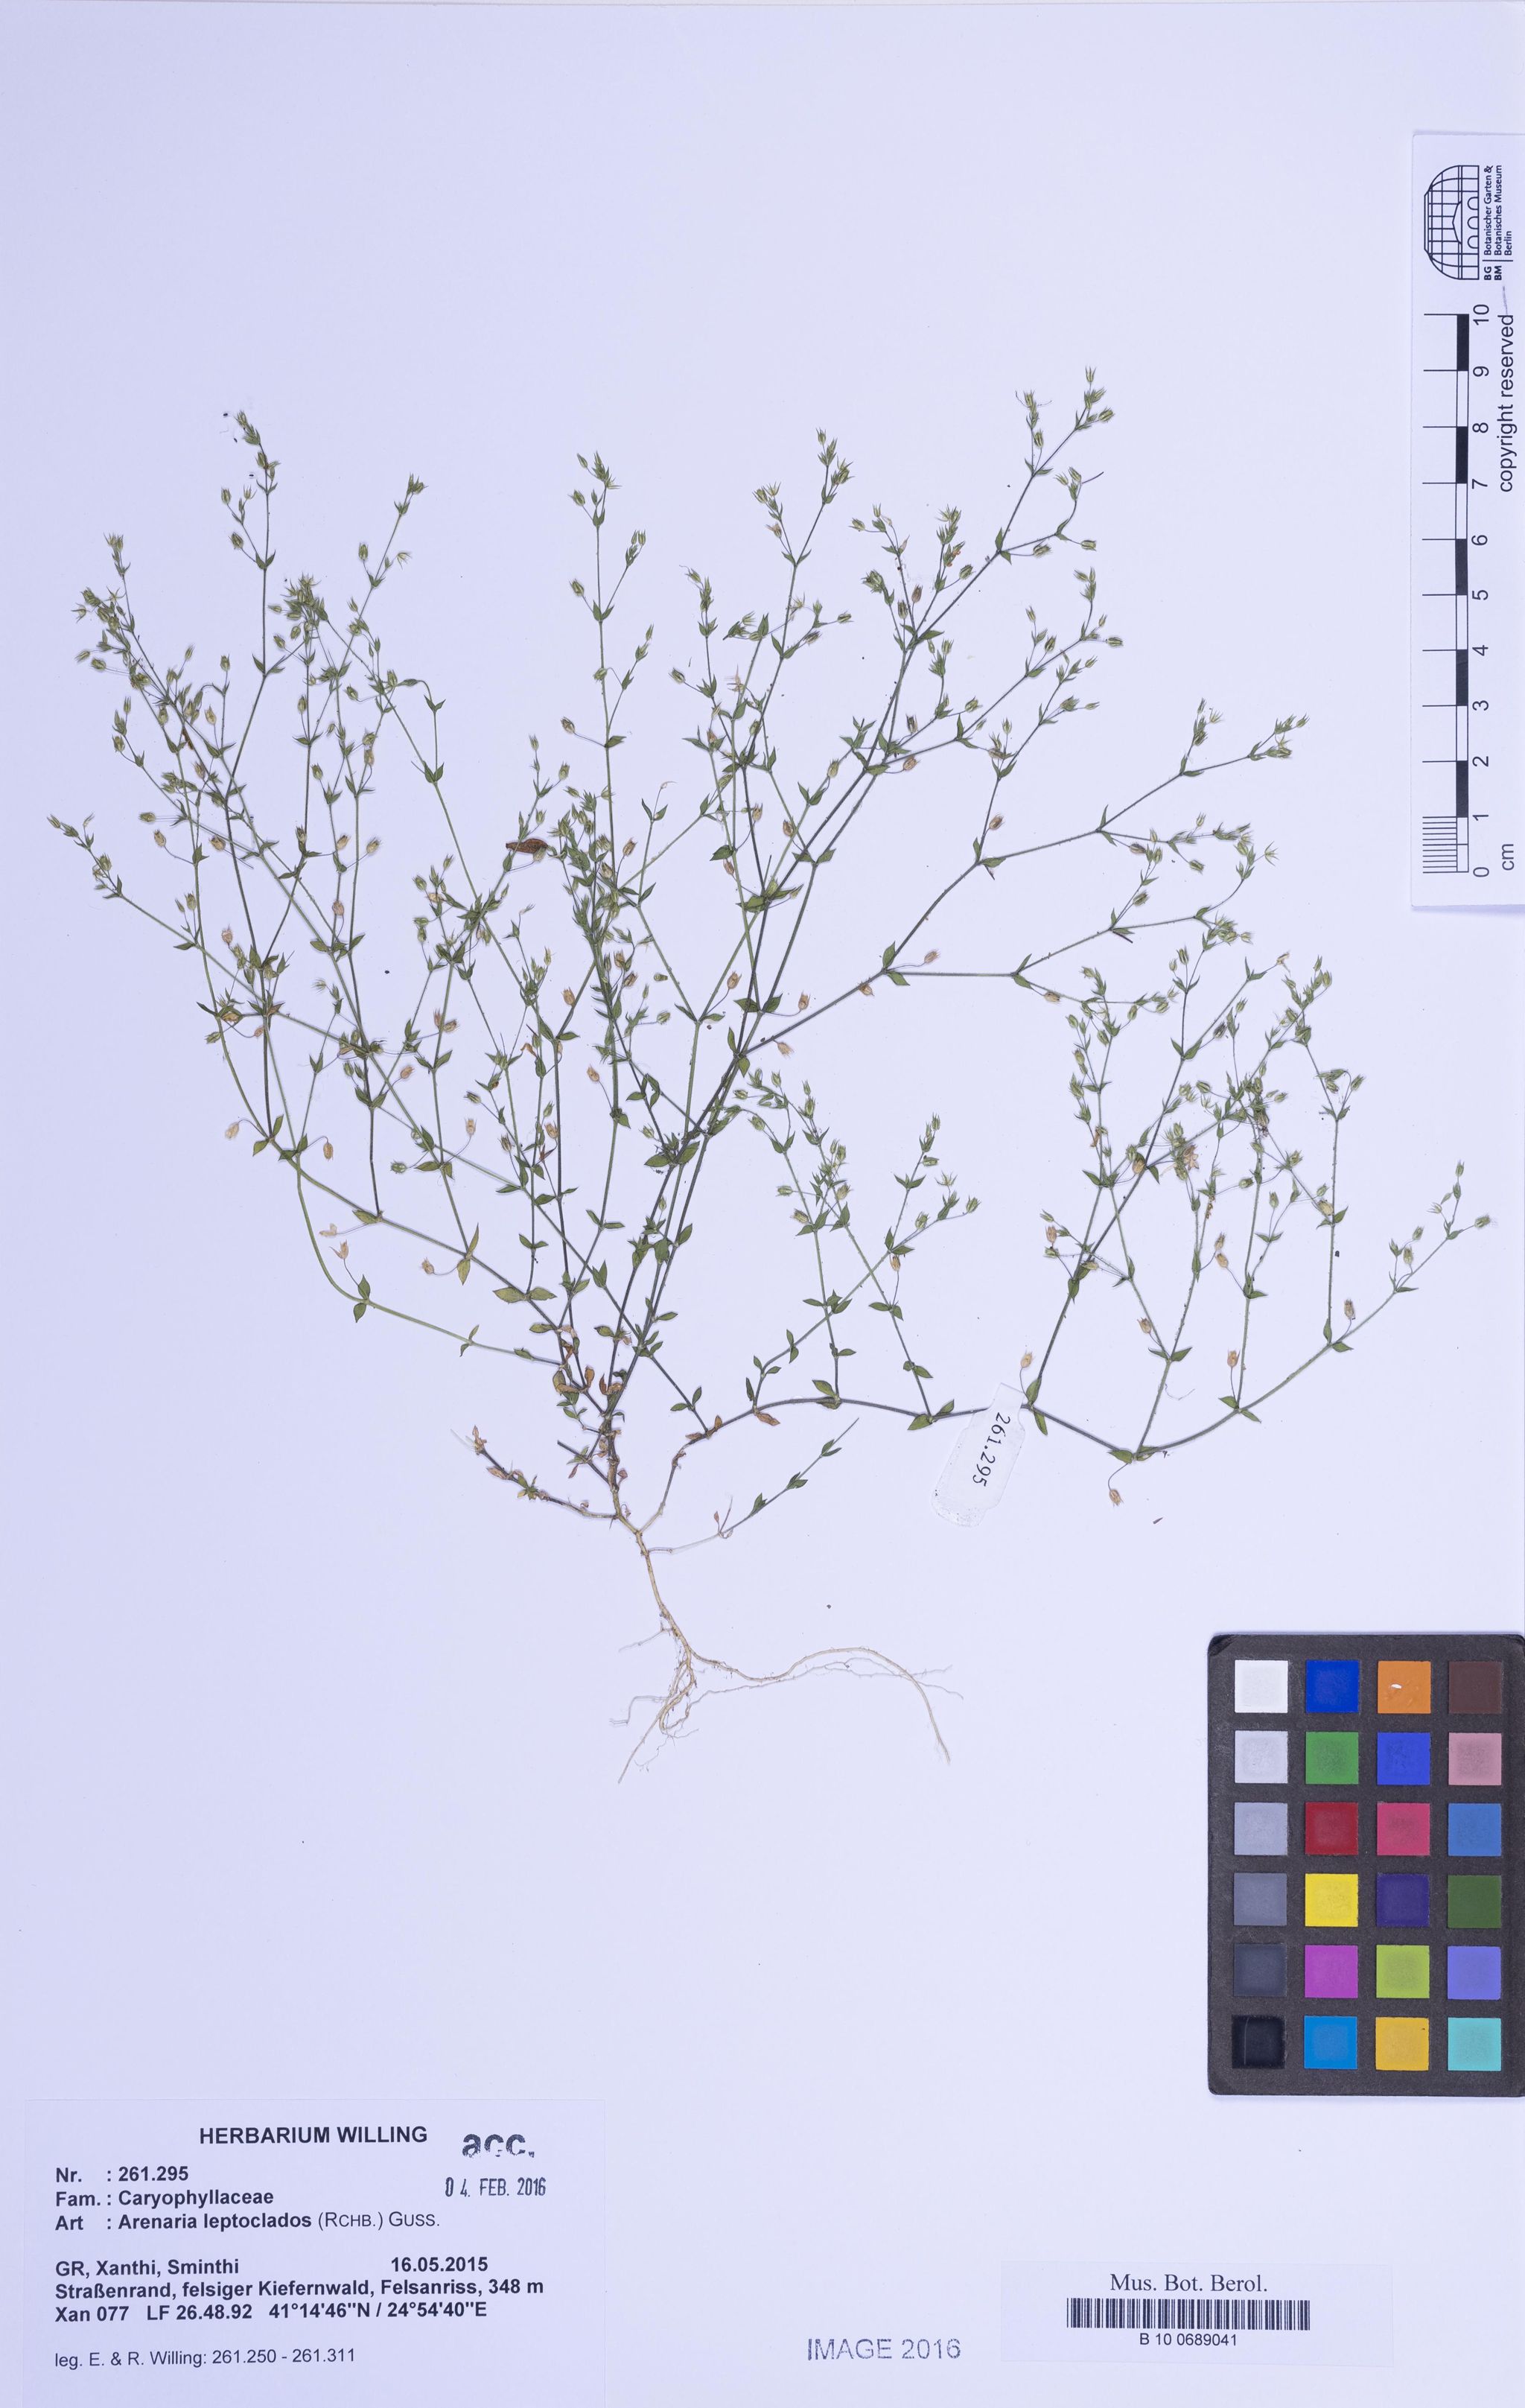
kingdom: Plantae
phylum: Tracheophyta
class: Magnoliopsida
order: Caryophyllales
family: Caryophyllaceae
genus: Arenaria
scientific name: Arenaria leptoclados
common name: Thyme-leaved sandwort
